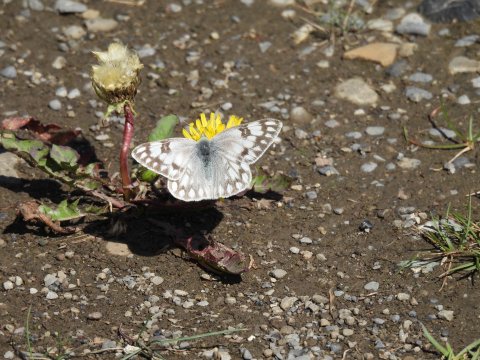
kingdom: Animalia
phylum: Arthropoda
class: Insecta
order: Lepidoptera
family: Pieridae
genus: Pontia
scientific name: Pontia occidentalis
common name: Western White
